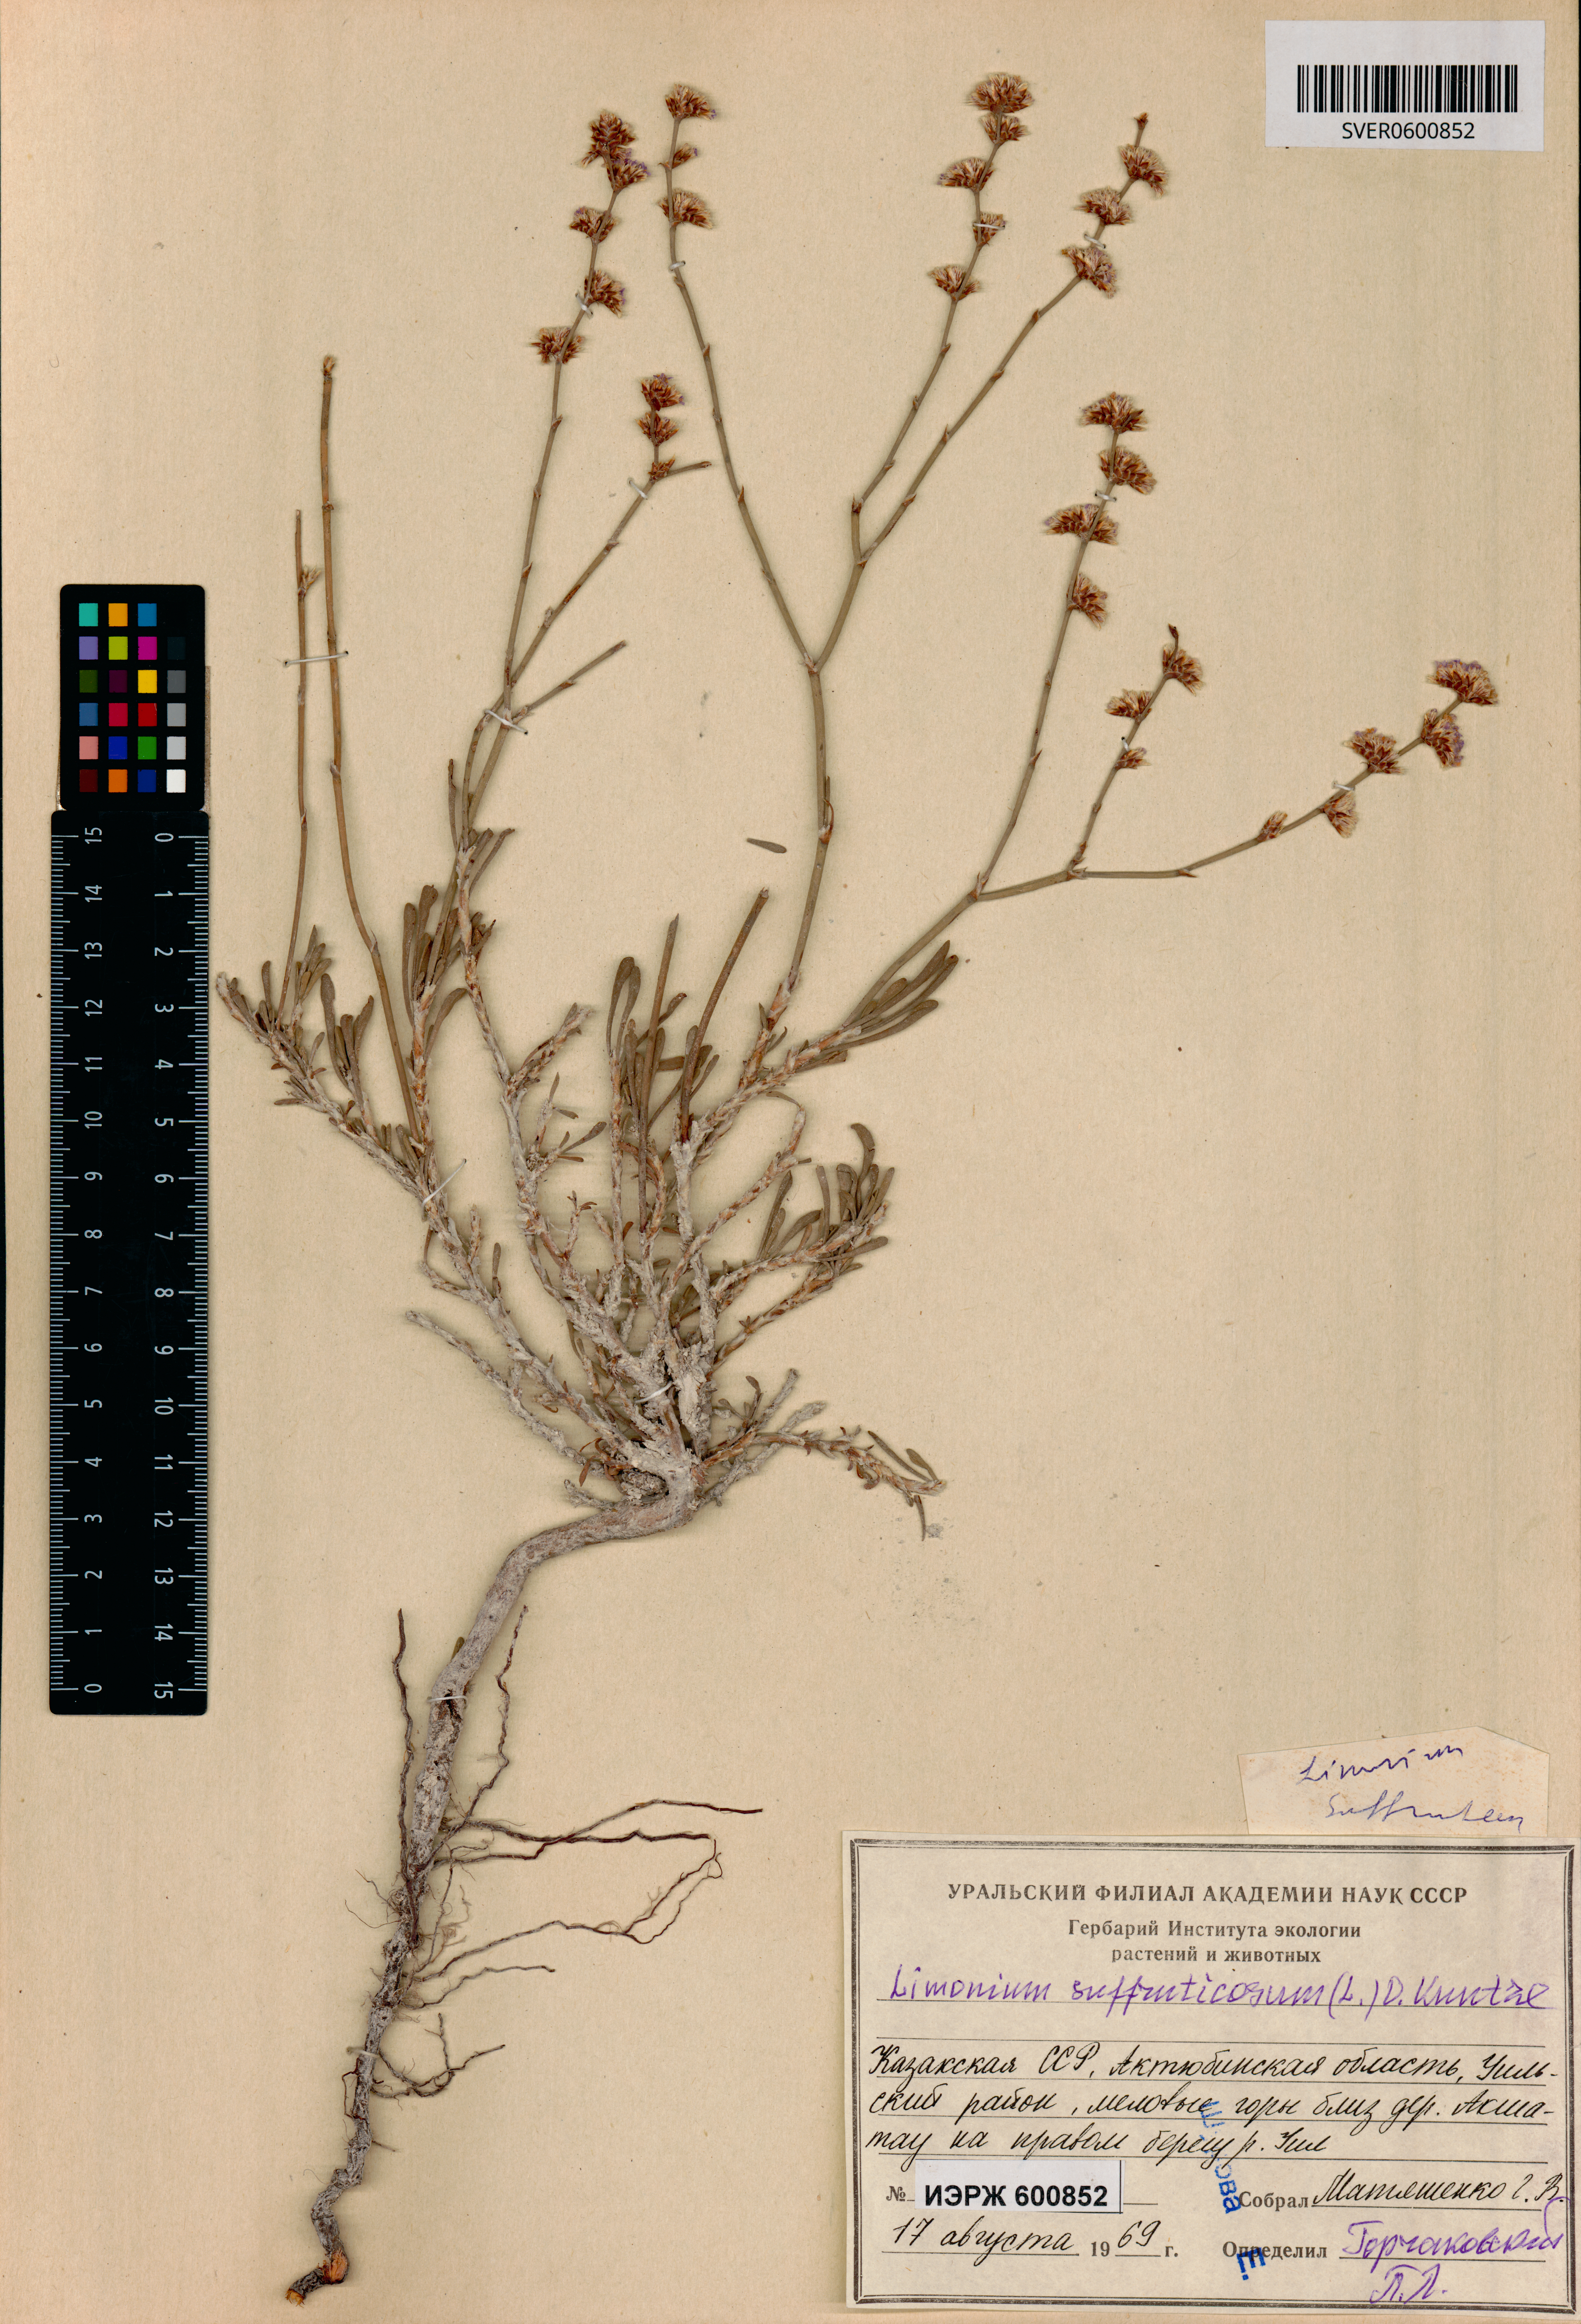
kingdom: Plantae
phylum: Tracheophyta
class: Magnoliopsida
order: Caryophyllales
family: Plumbaginaceae
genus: Limonium
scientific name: Limonium suffruticosum
